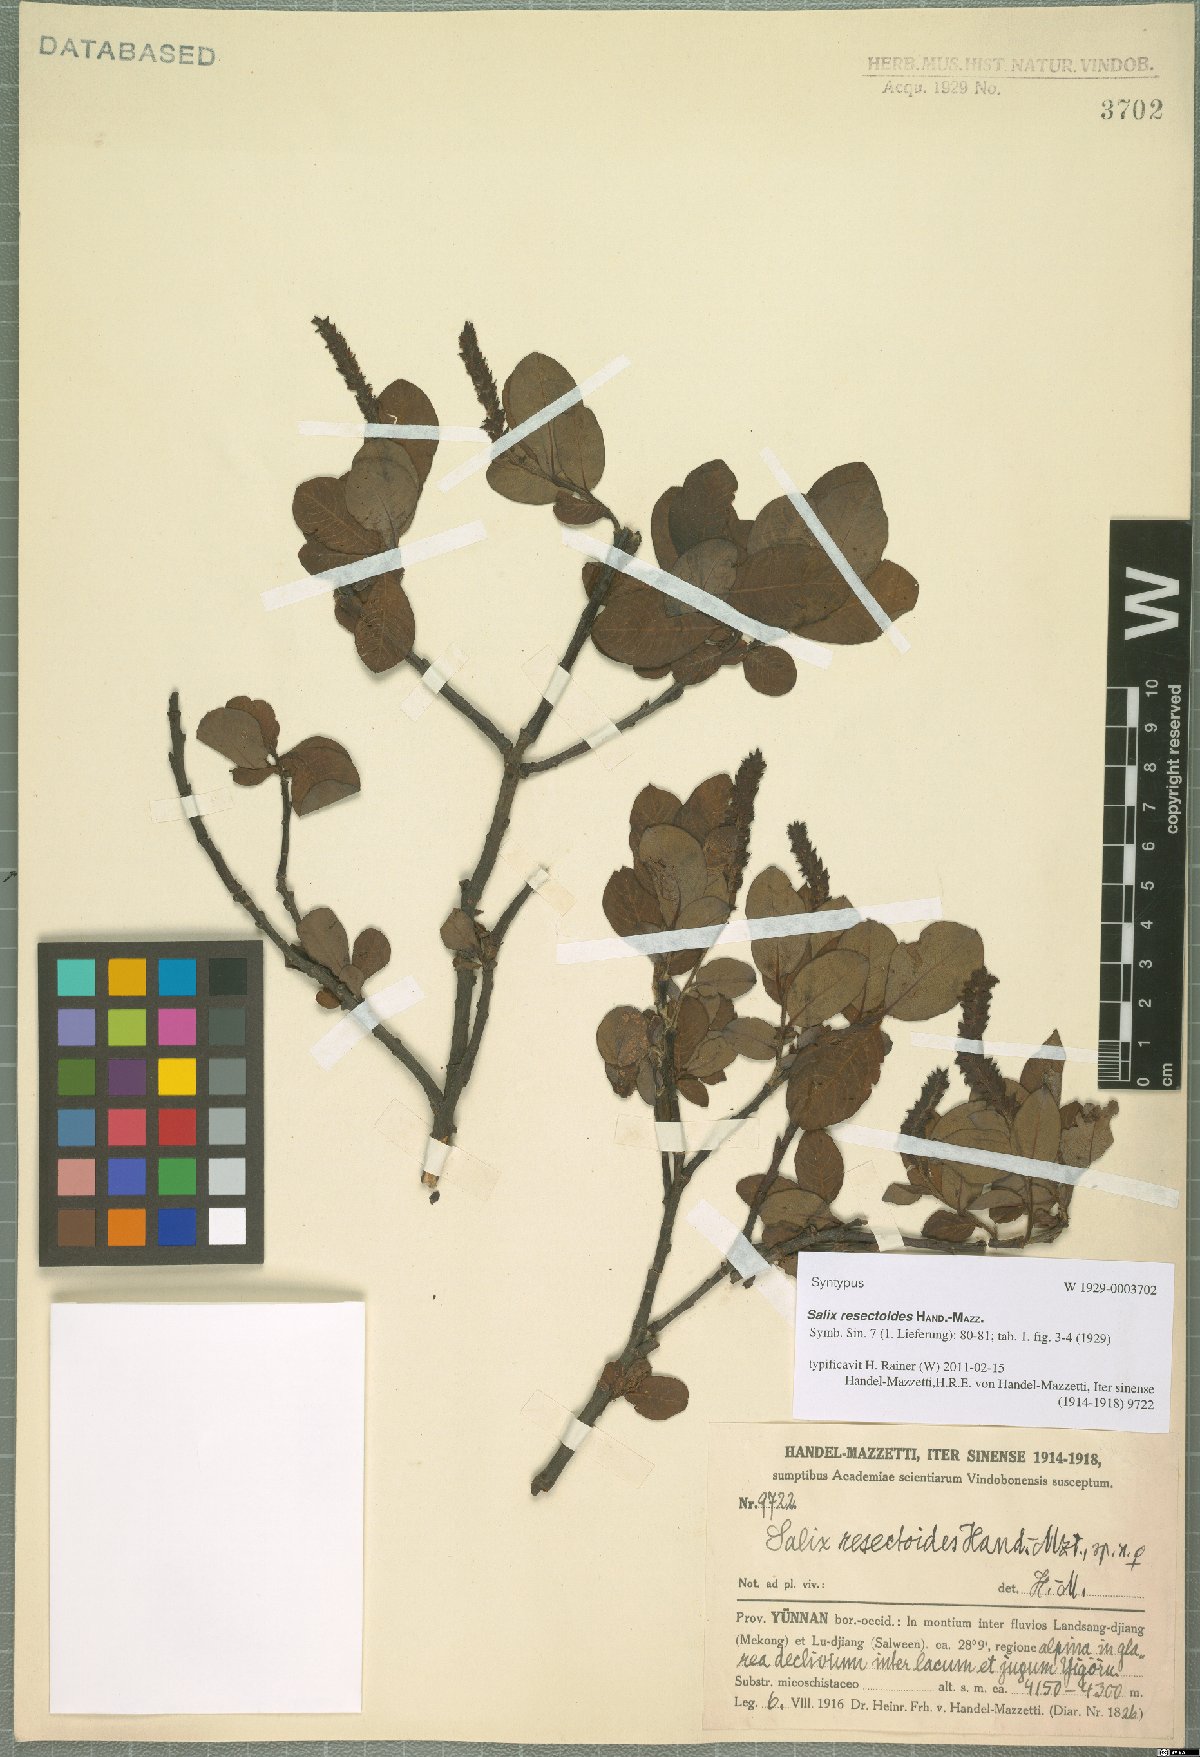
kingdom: Plantae
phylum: Tracheophyta
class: Magnoliopsida
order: Malpighiales
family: Salicaceae
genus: Salix
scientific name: Salix resectoides
